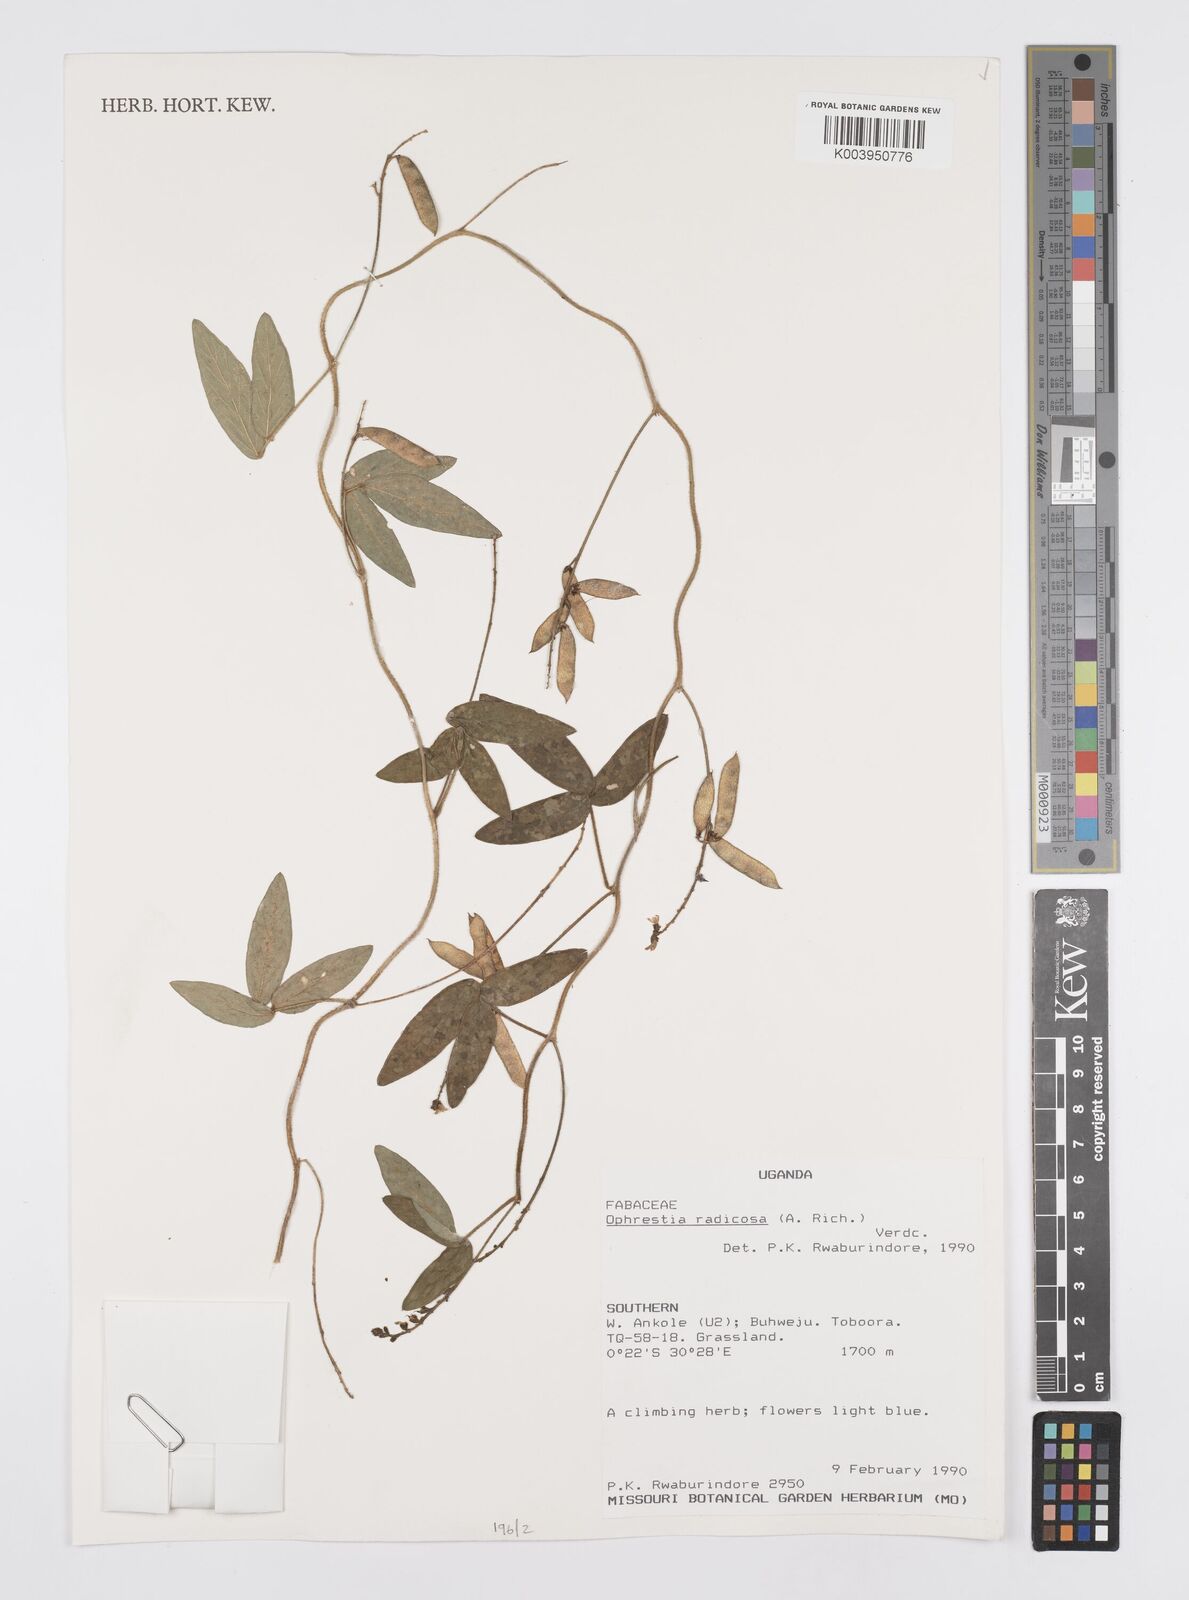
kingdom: Plantae
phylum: Tracheophyta
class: Magnoliopsida
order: Fabales
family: Fabaceae
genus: Ophrestia
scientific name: Ophrestia radicosa
